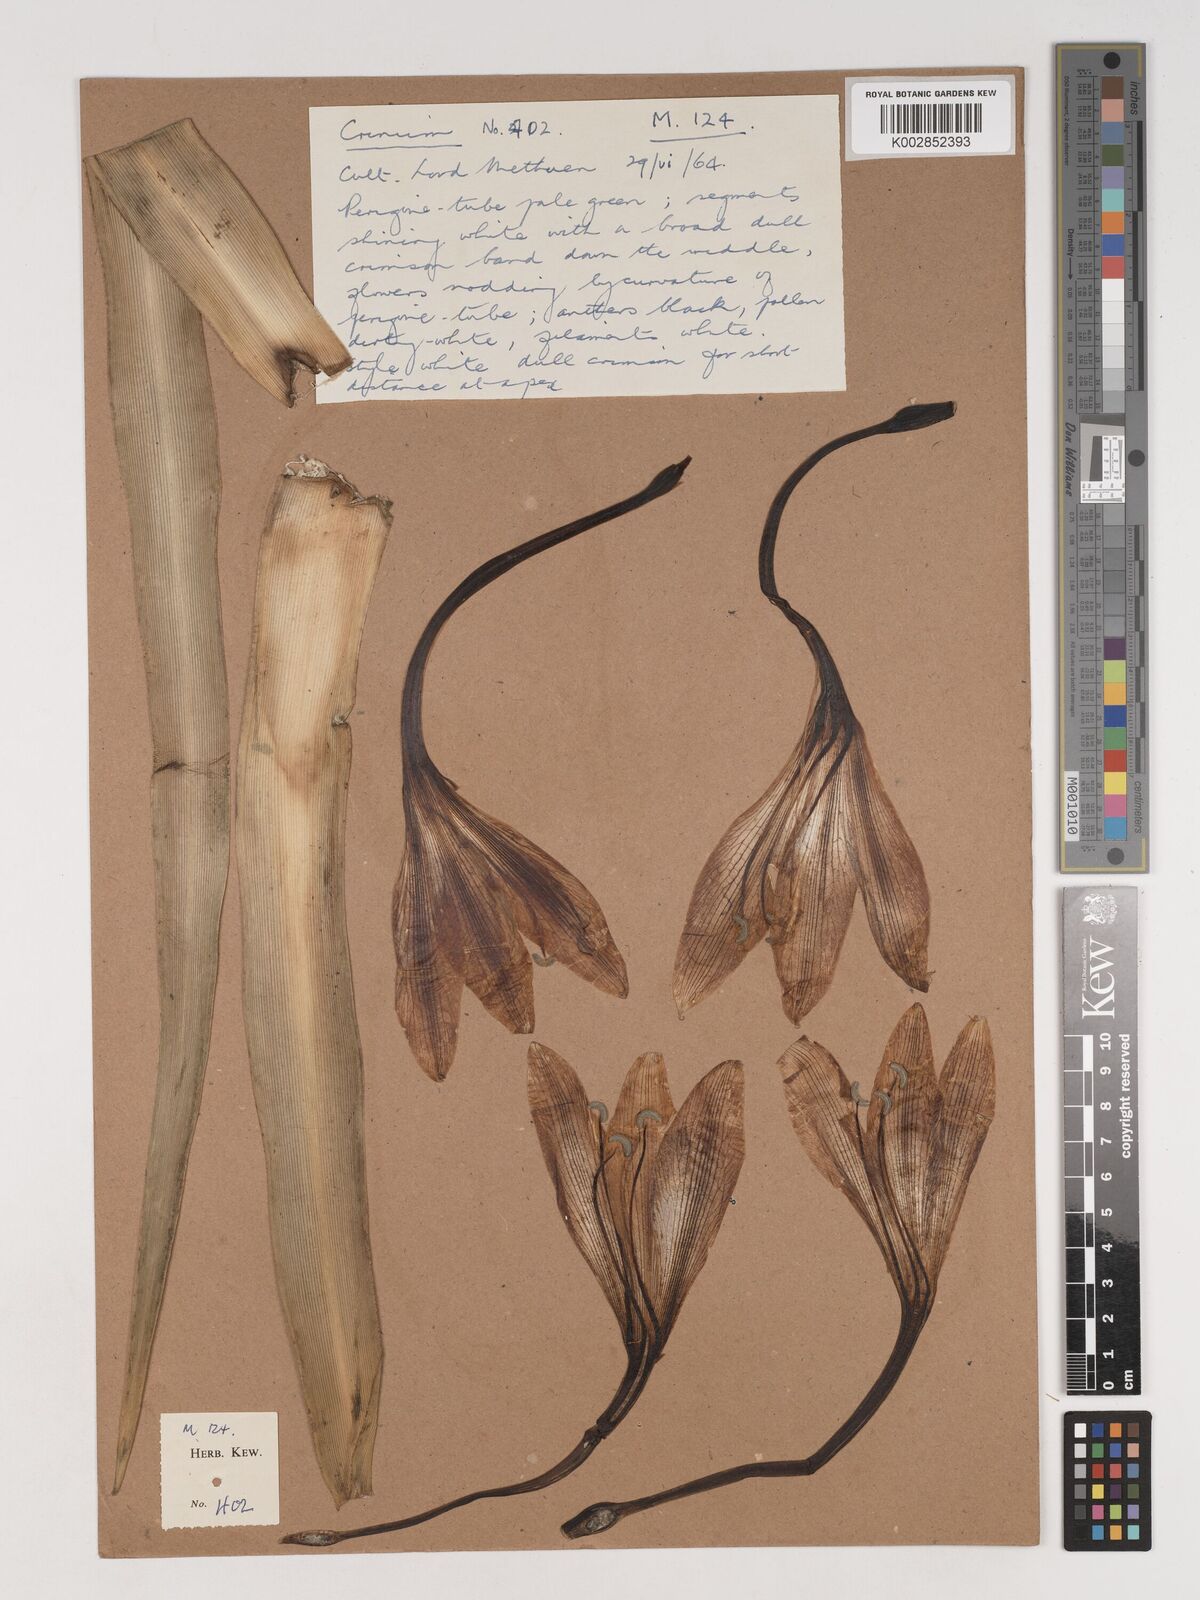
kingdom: Plantae
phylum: Tracheophyta
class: Liliopsida
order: Asparagales
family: Amaryllidaceae
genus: Crinum
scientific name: Crinum
